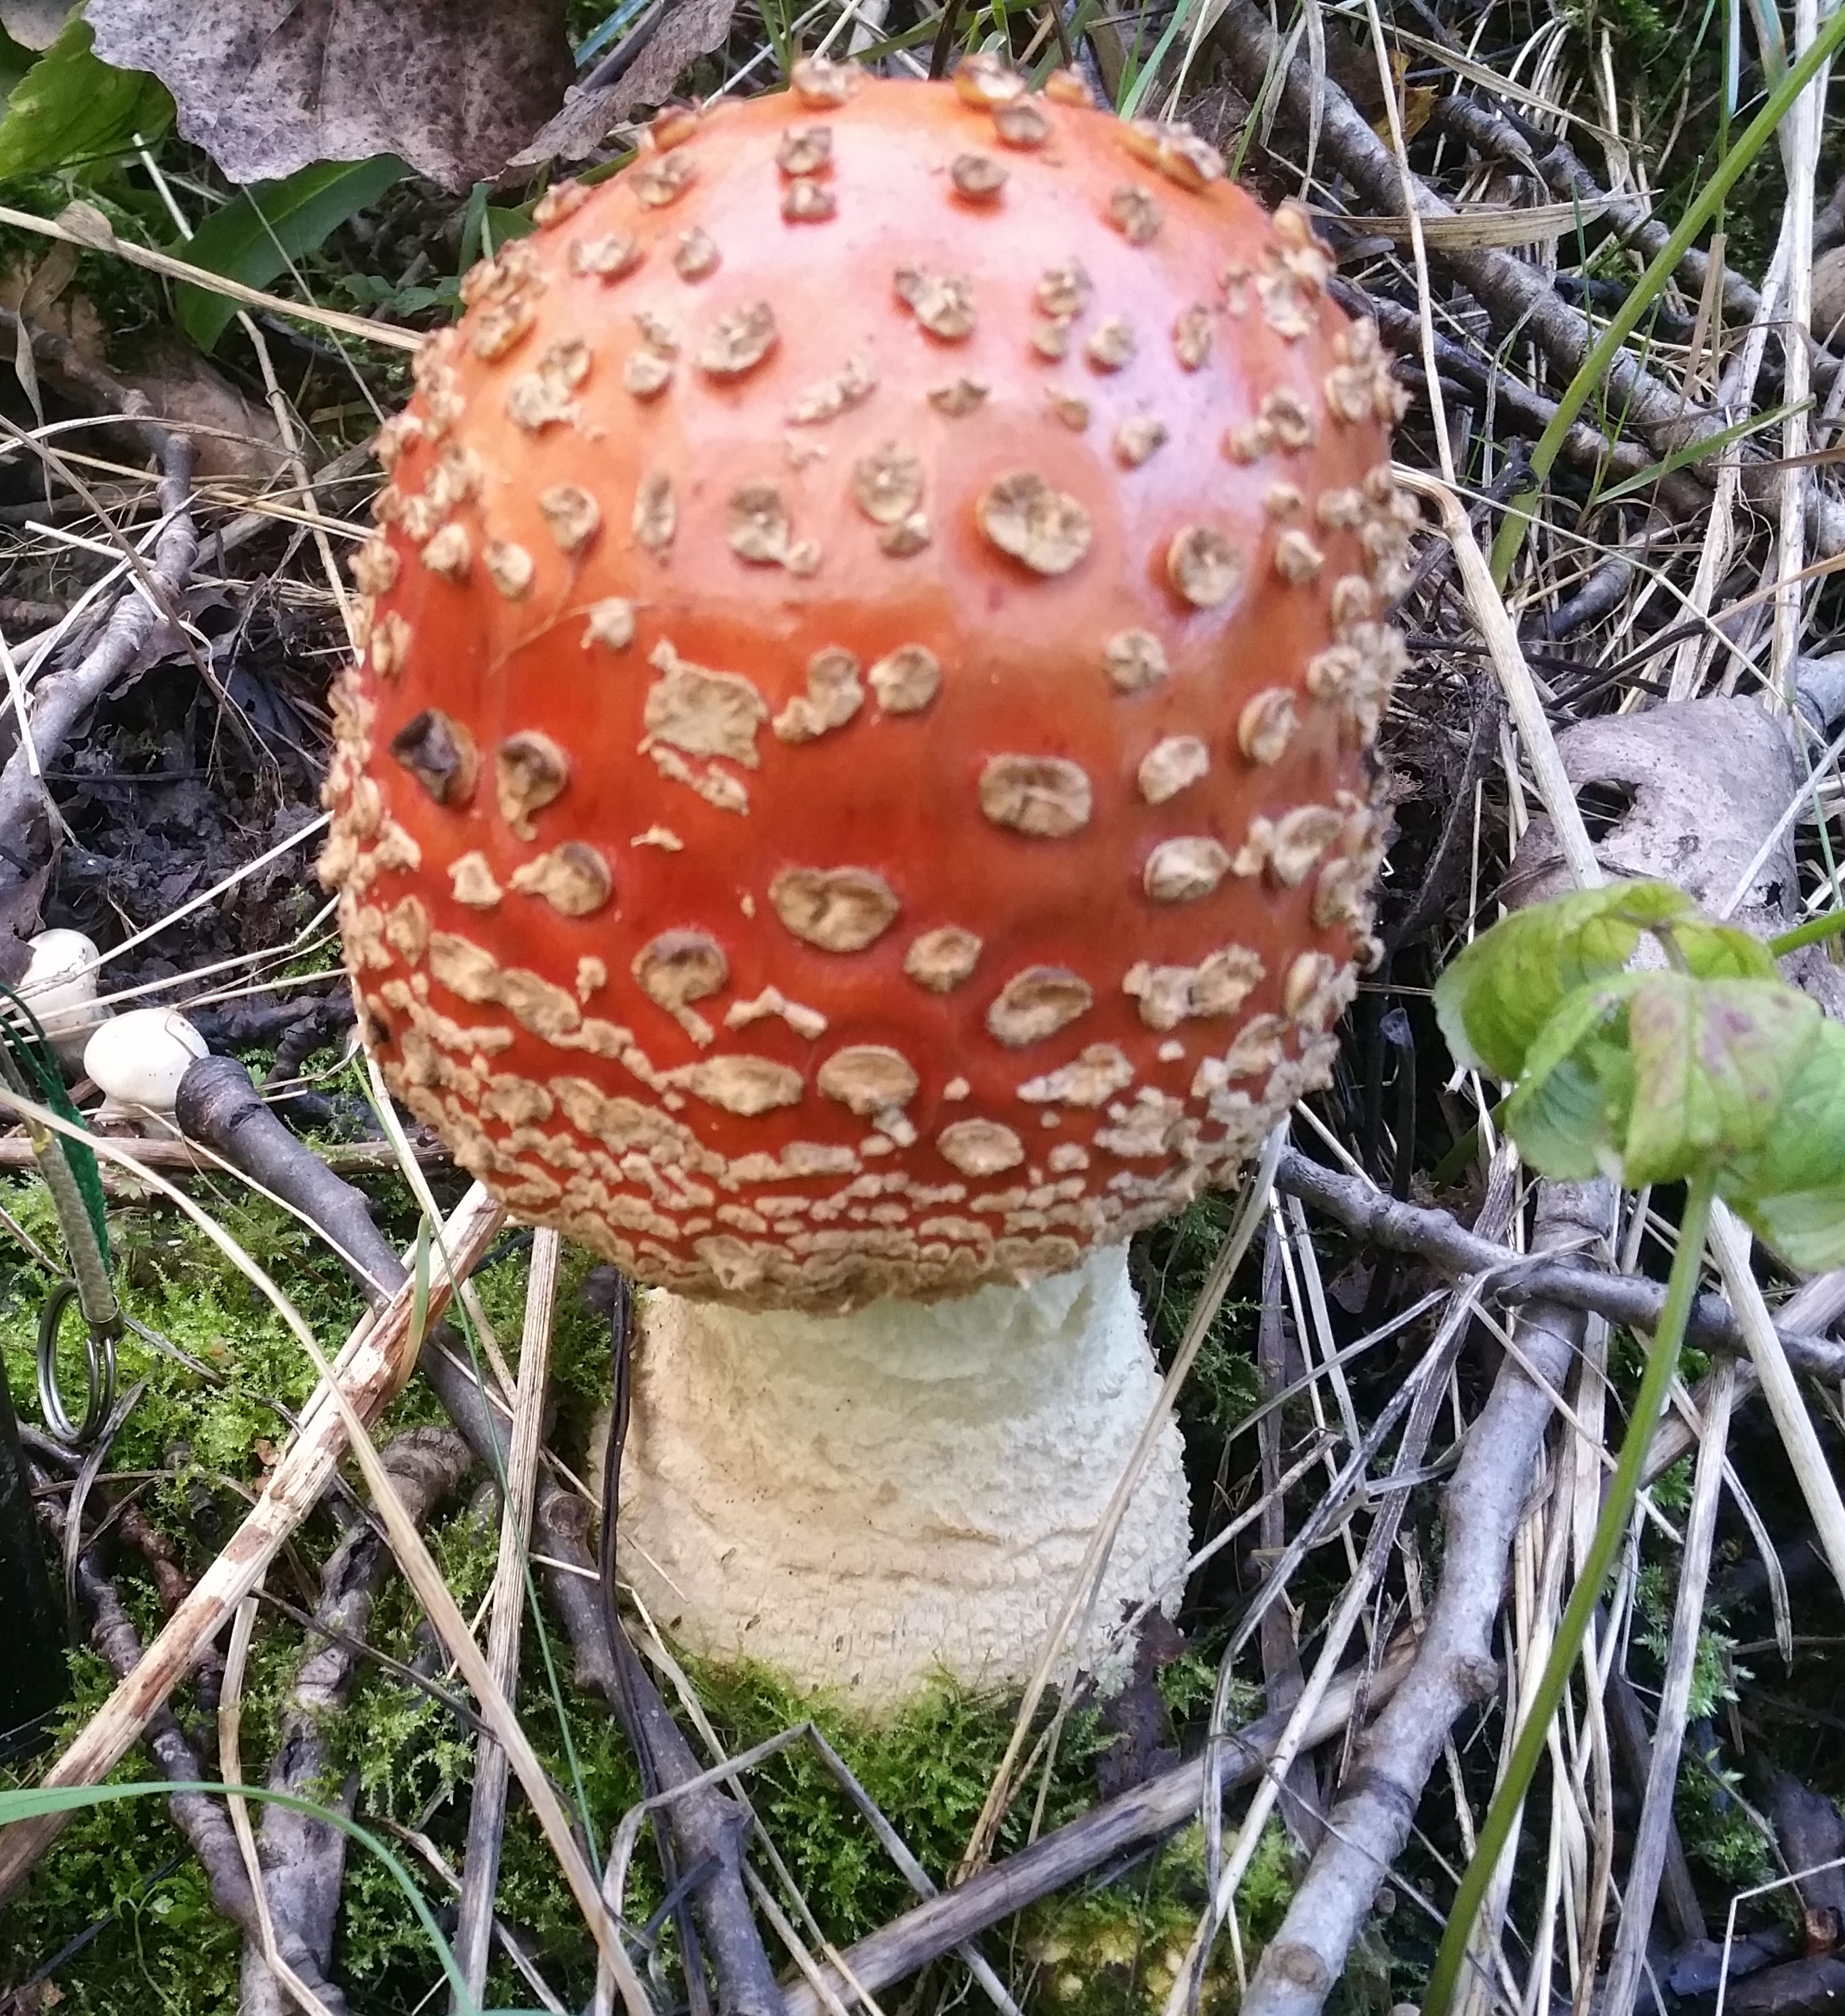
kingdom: Fungi
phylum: Basidiomycota
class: Agaricomycetes
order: Agaricales
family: Amanitaceae
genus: Amanita
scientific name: Amanita muscaria
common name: Fly agaric
